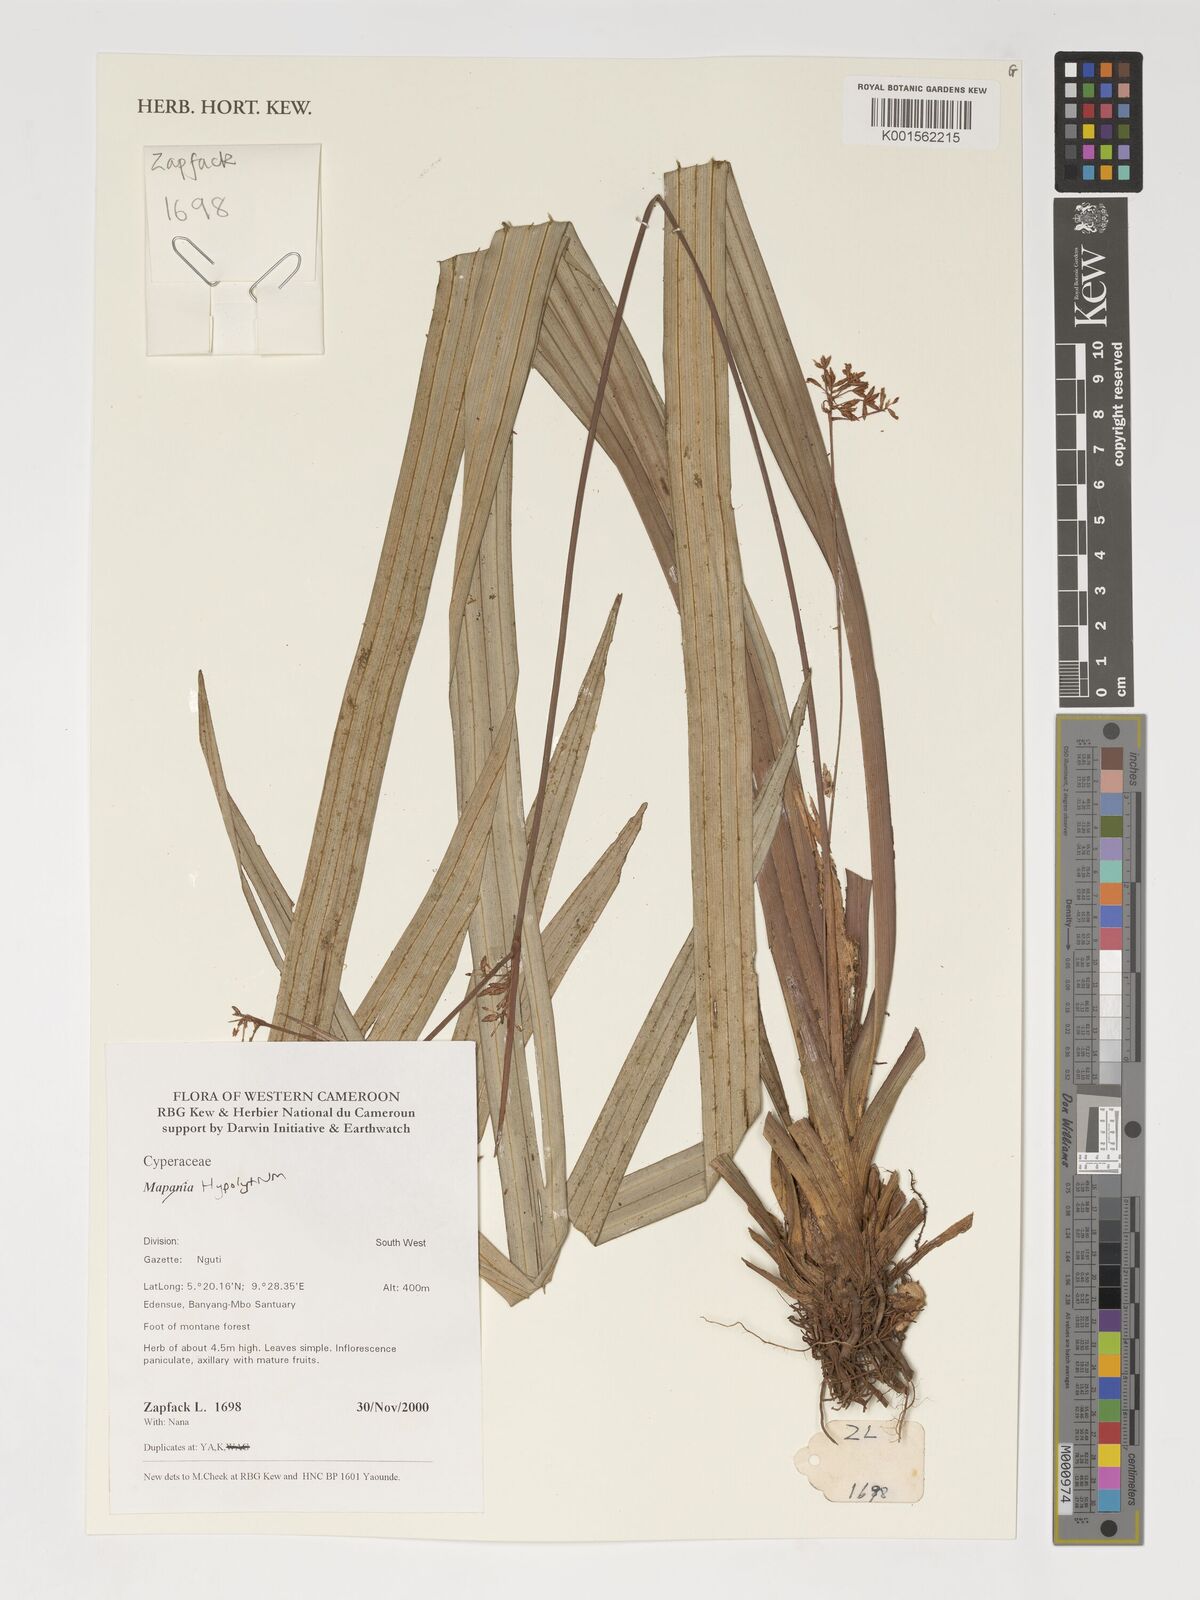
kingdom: Plantae
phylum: Tracheophyta
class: Liliopsida
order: Poales
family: Cyperaceae
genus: Hypolytrum
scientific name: Hypolytrum
